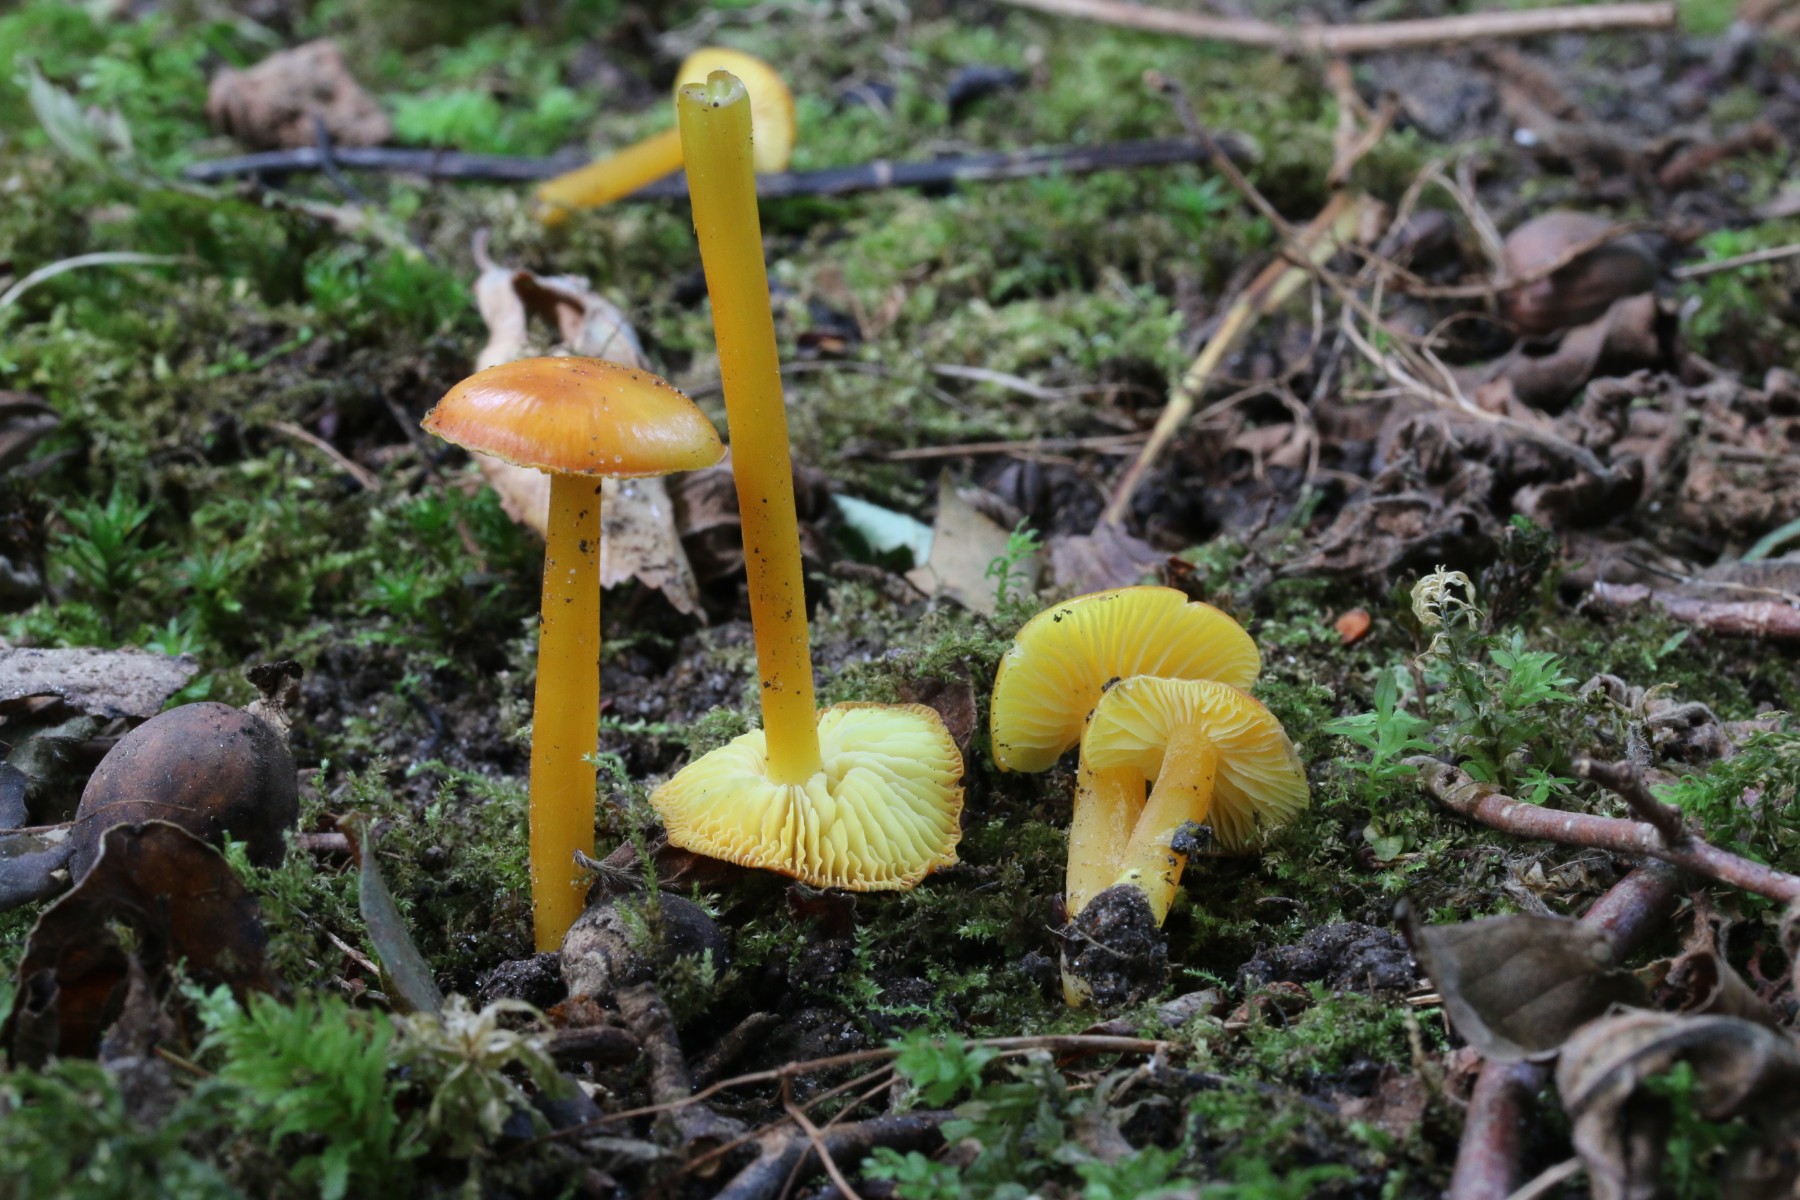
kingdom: Fungi
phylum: Basidiomycota
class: Agaricomycetes
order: Agaricales
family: Hygrophoraceae
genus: Hygrocybe
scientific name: Hygrocybe ceracea
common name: voksgul vokshat
